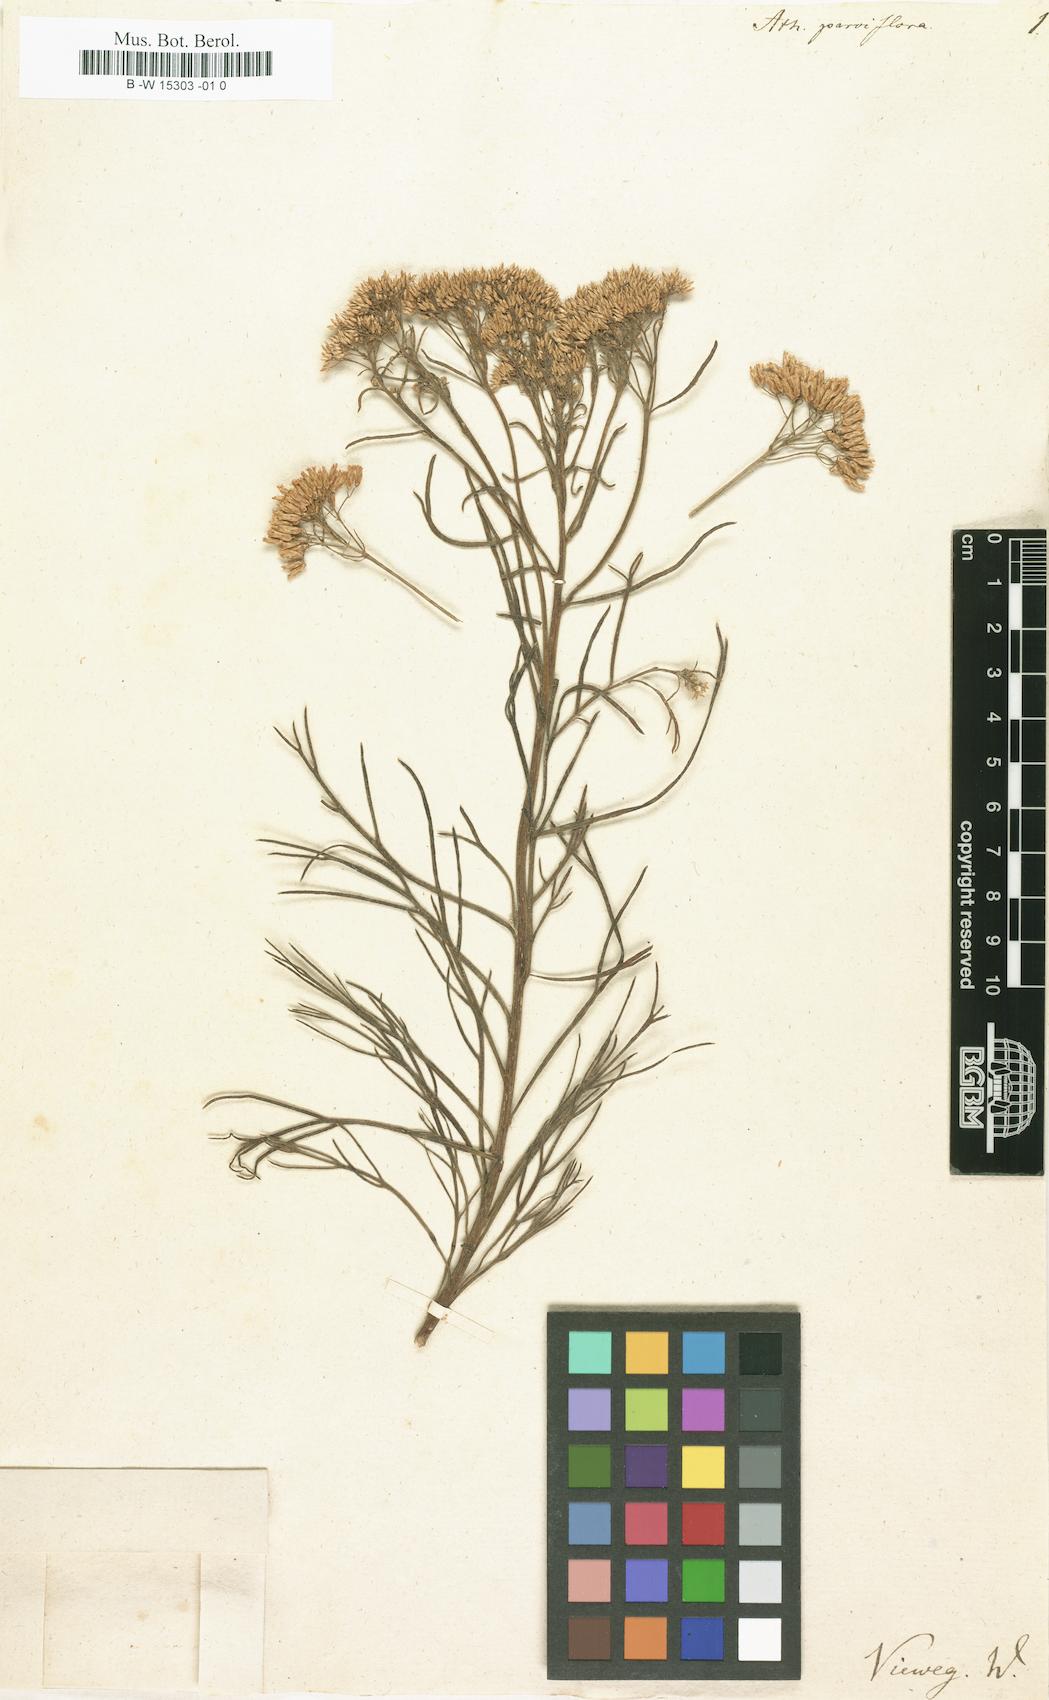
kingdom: Plantae
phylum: Tracheophyta
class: Magnoliopsida
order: Asterales
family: Asteraceae
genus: Hymenolepis
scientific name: Hymenolepis crithmifolia
